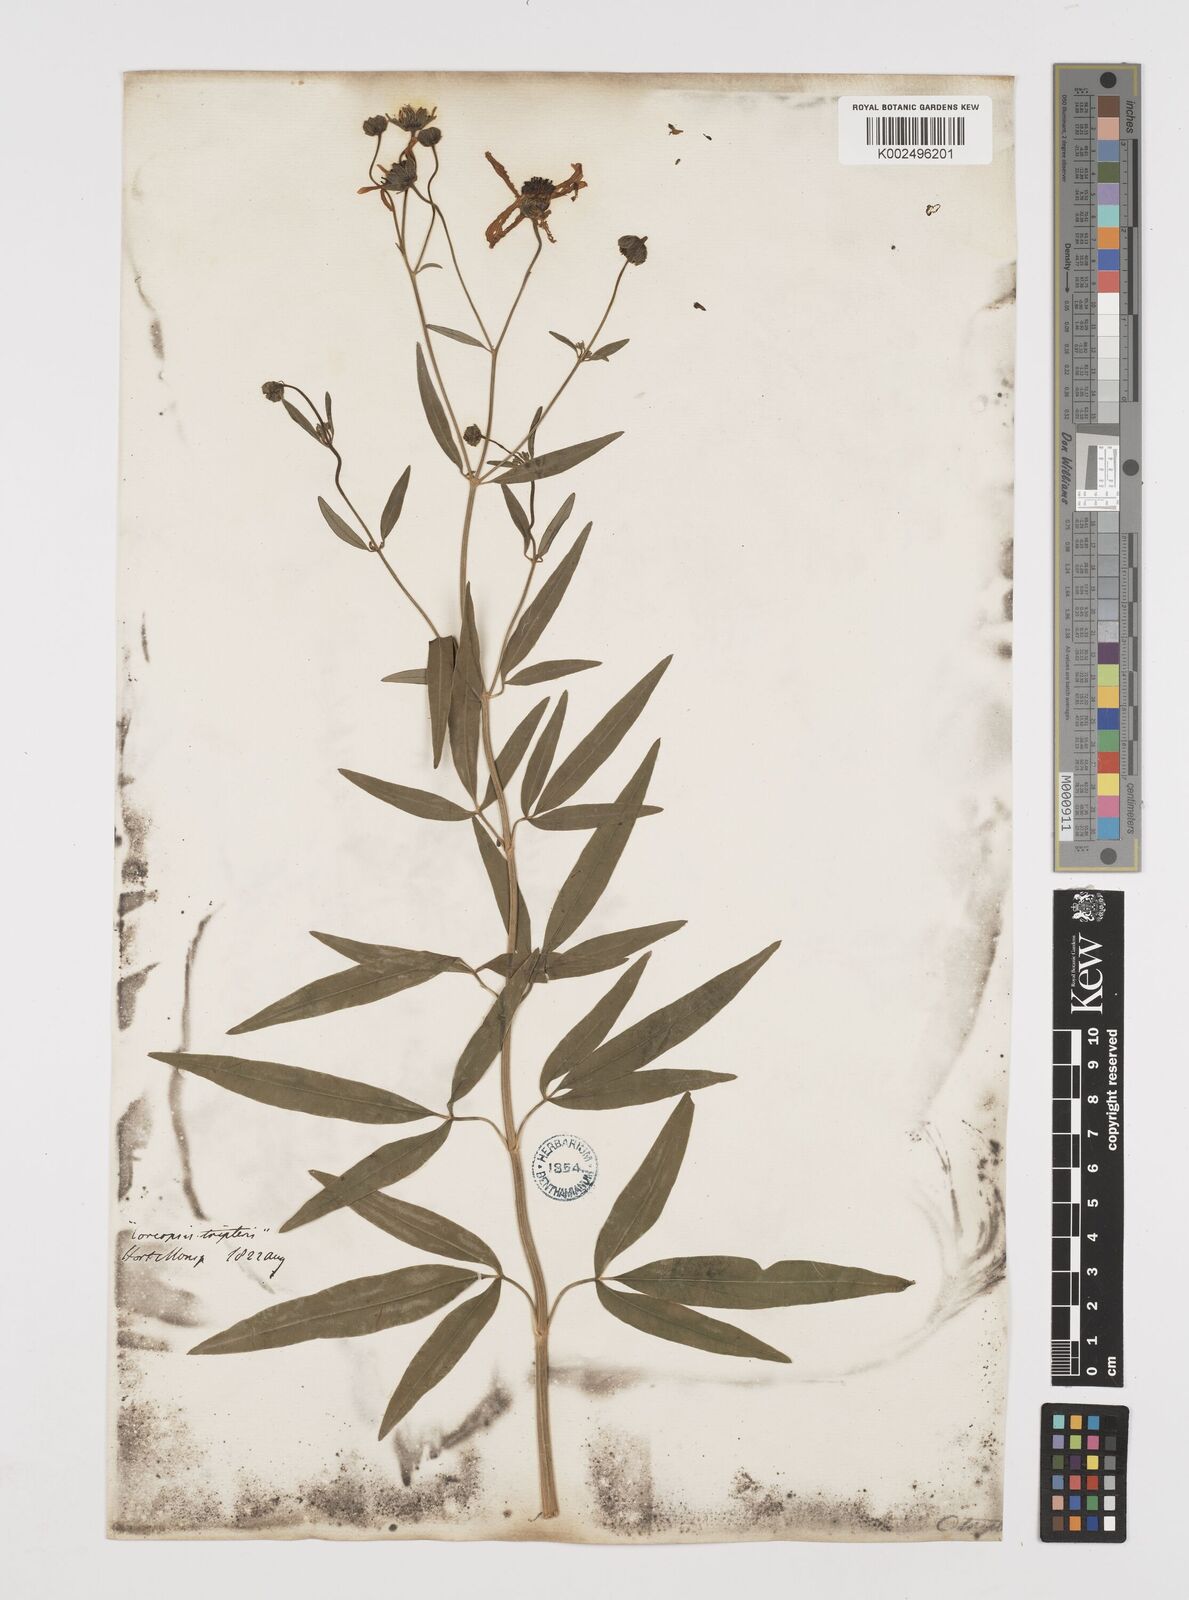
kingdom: Plantae
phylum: Tracheophyta
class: Magnoliopsida
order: Asterales
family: Asteraceae
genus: Coreopsis
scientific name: Coreopsis
